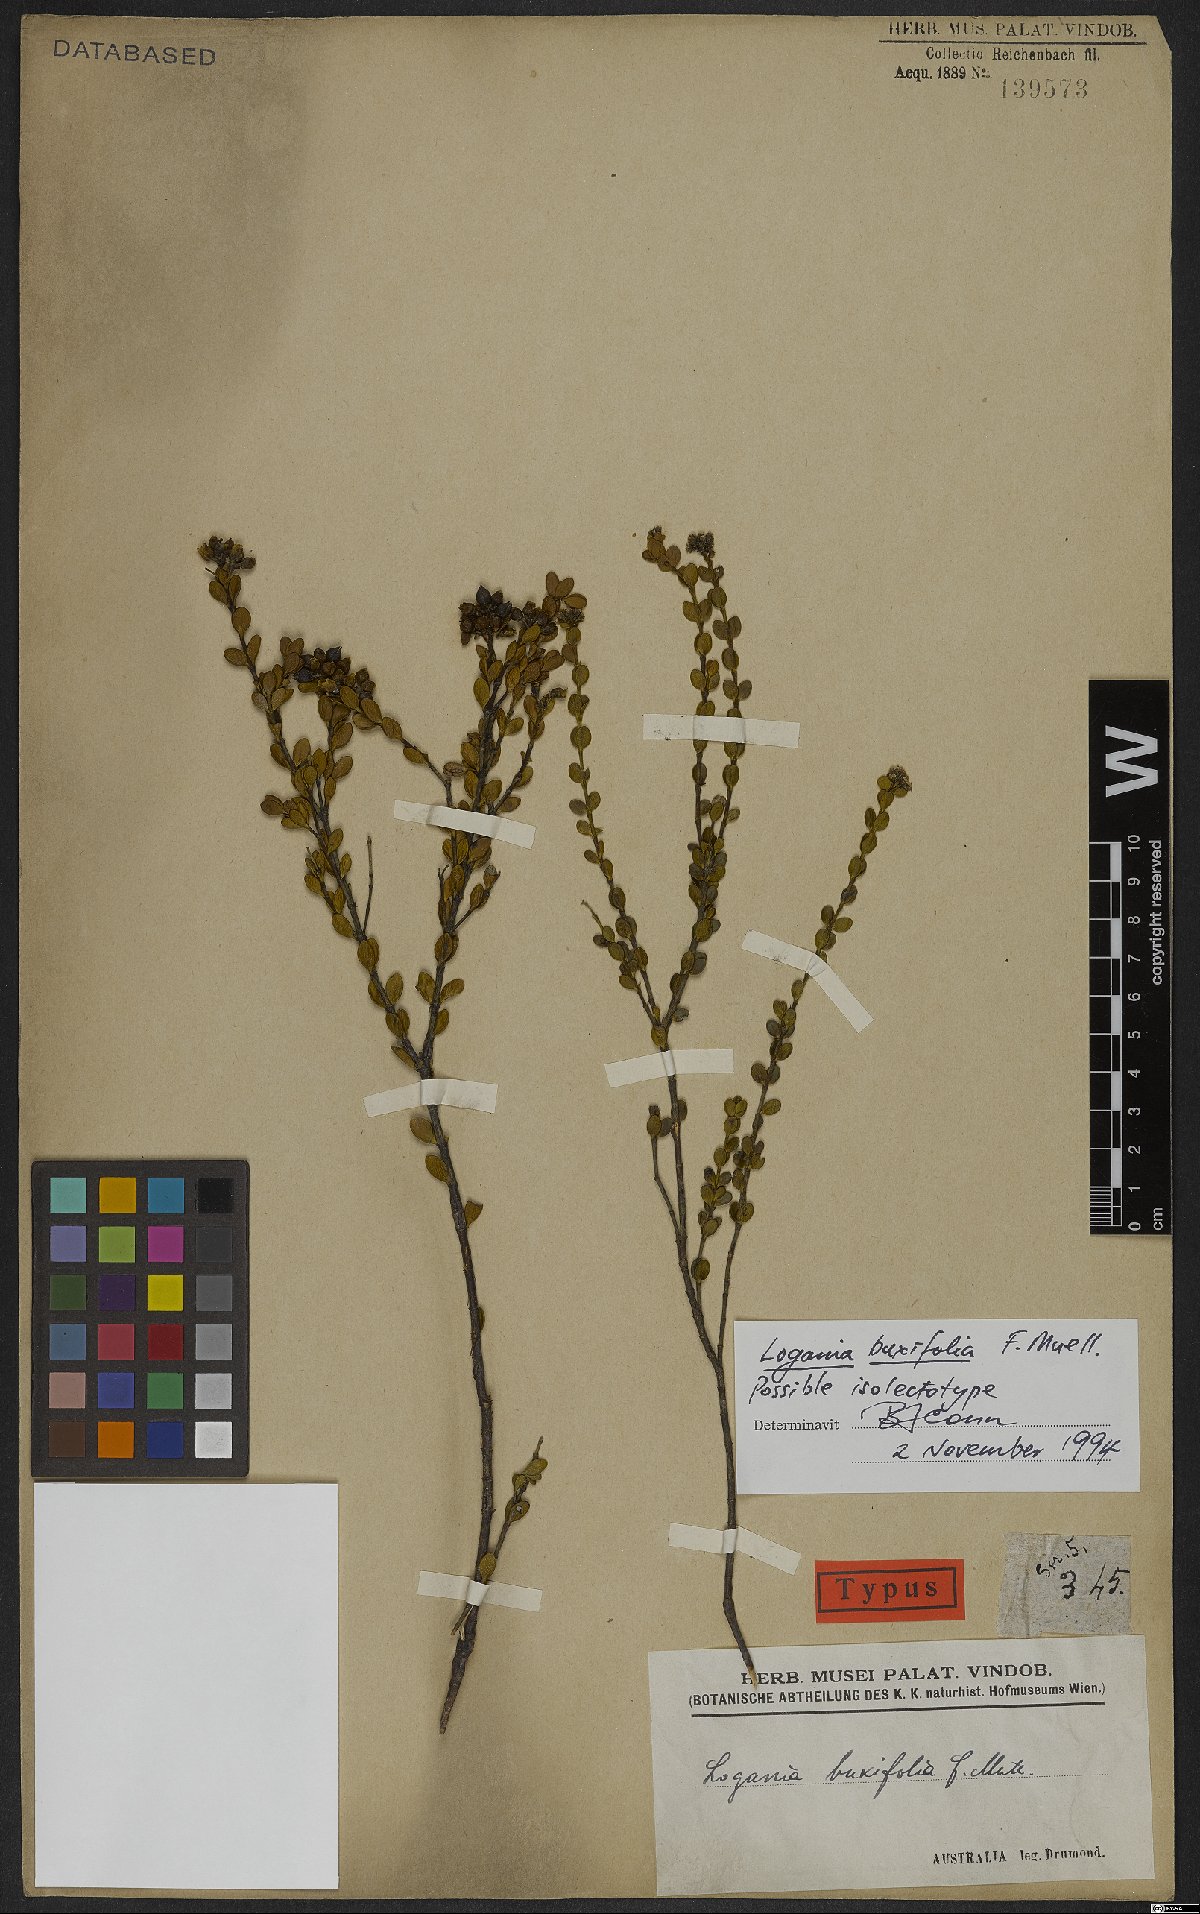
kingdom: Plantae
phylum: Tracheophyta
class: Magnoliopsida
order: Gentianales
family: Loganiaceae
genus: Logania
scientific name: Logania buxifolia
